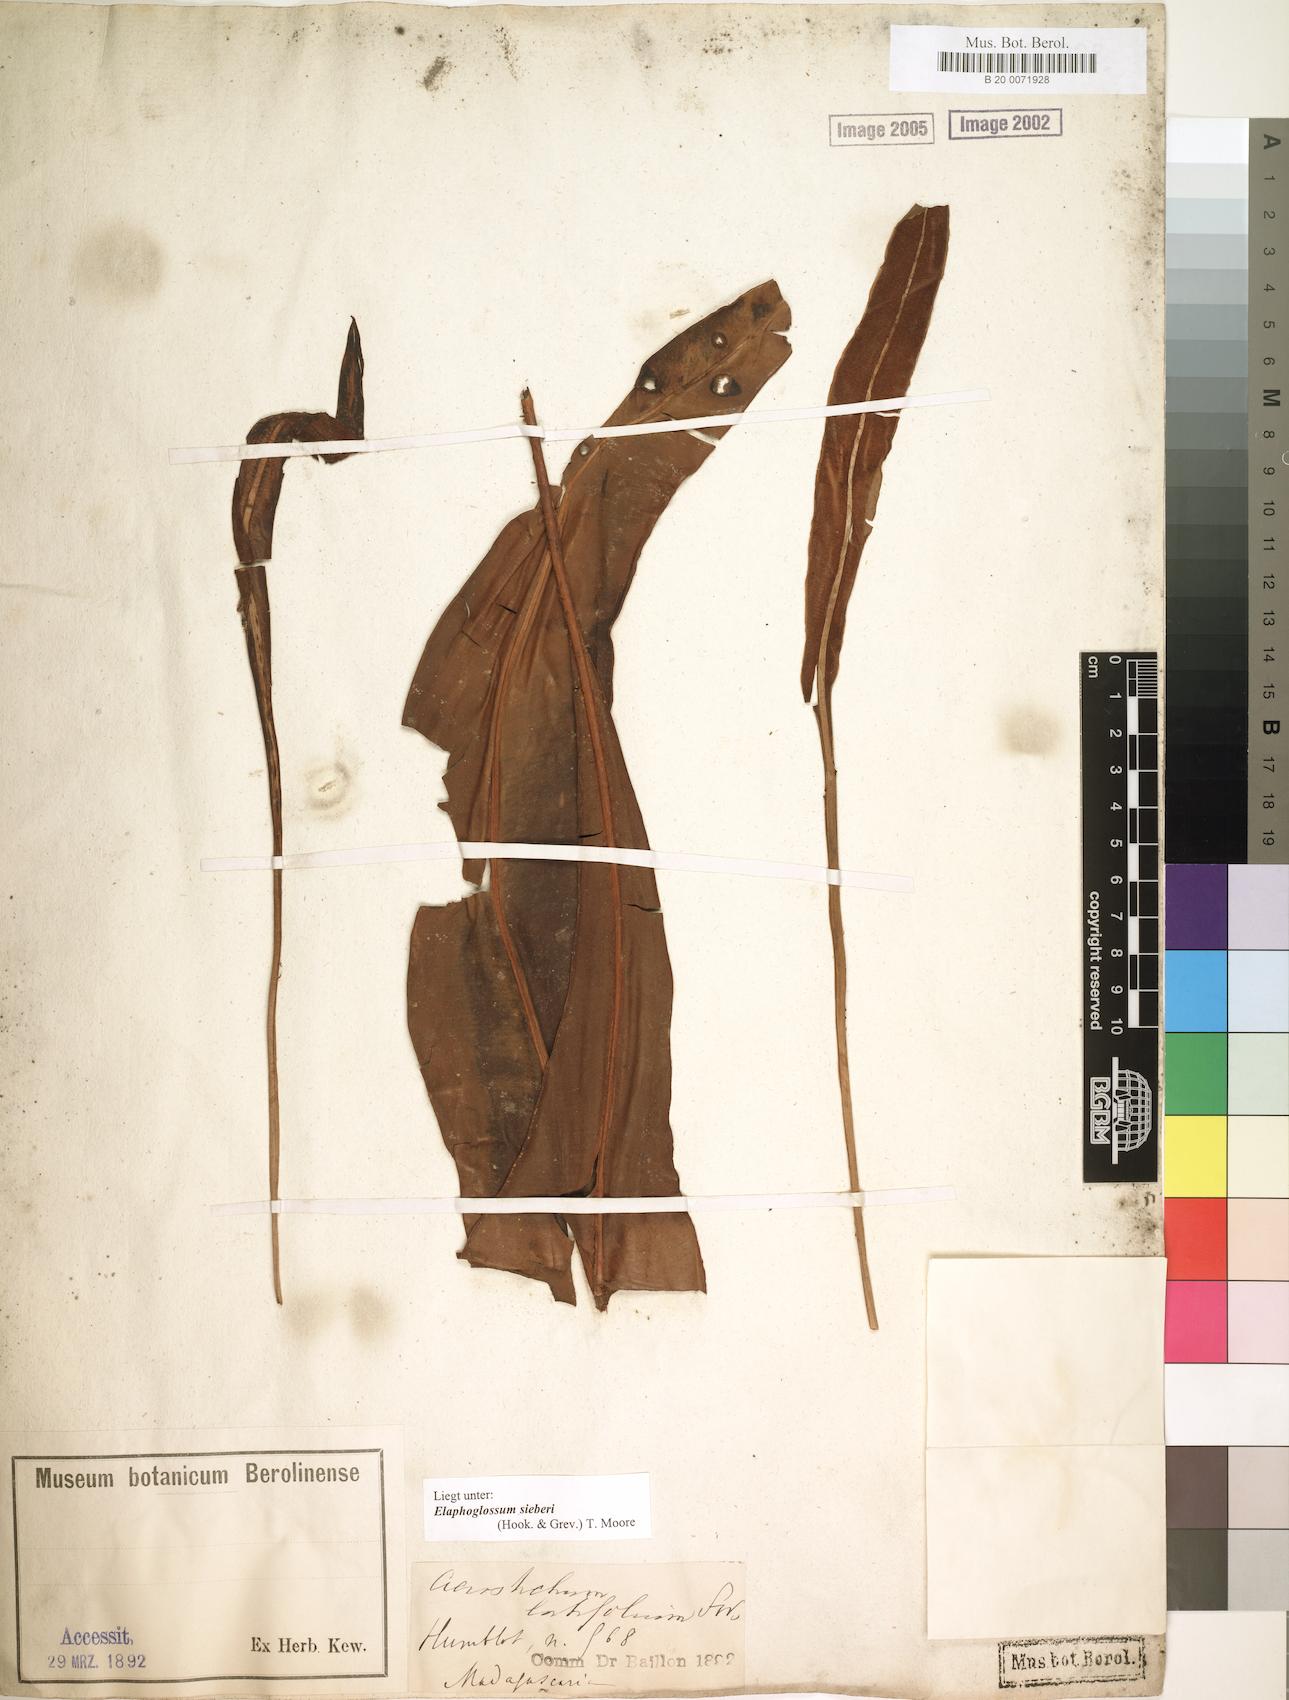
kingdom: Plantae
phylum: Tracheophyta
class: Polypodiopsida
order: Polypodiales
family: Dryopteridaceae
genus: Elaphoglossum
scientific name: Elaphoglossum sieberi
